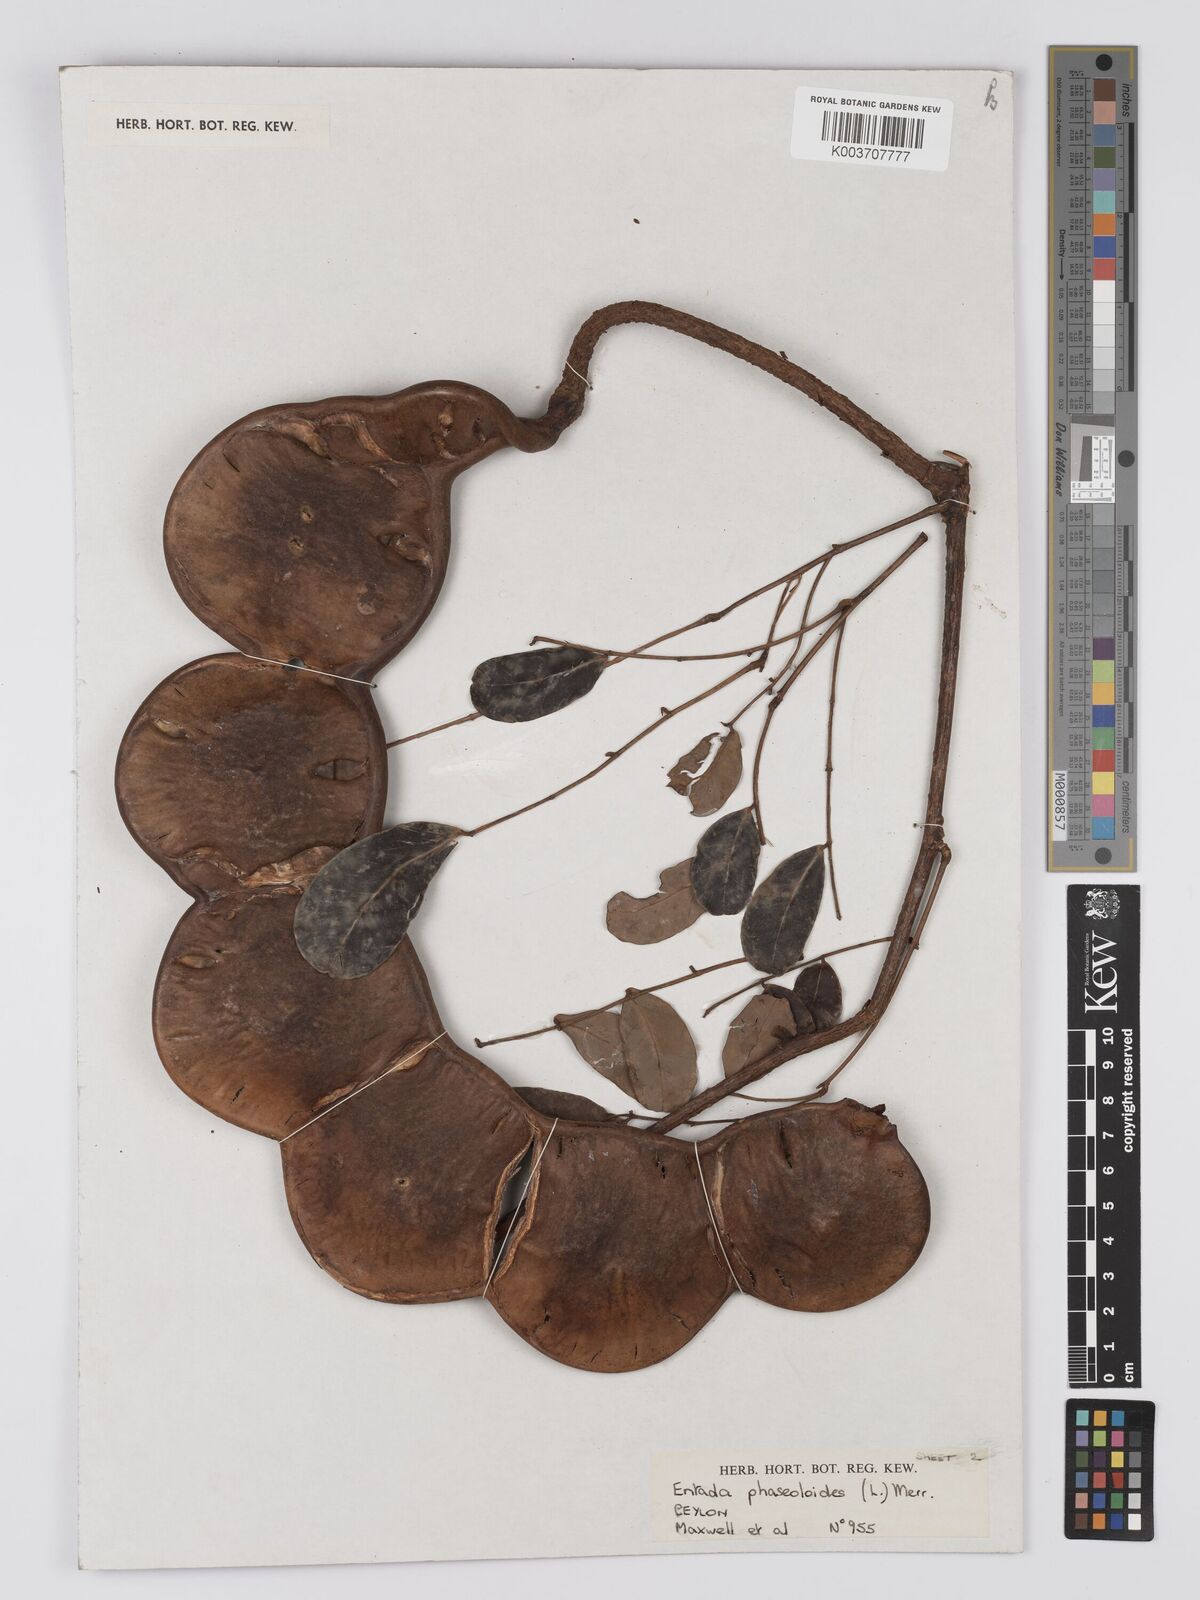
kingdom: Plantae
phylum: Tracheophyta
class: Magnoliopsida
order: Fabales
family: Fabaceae
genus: Entada
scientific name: Entada phaseoloides
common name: Matchbox-bean
